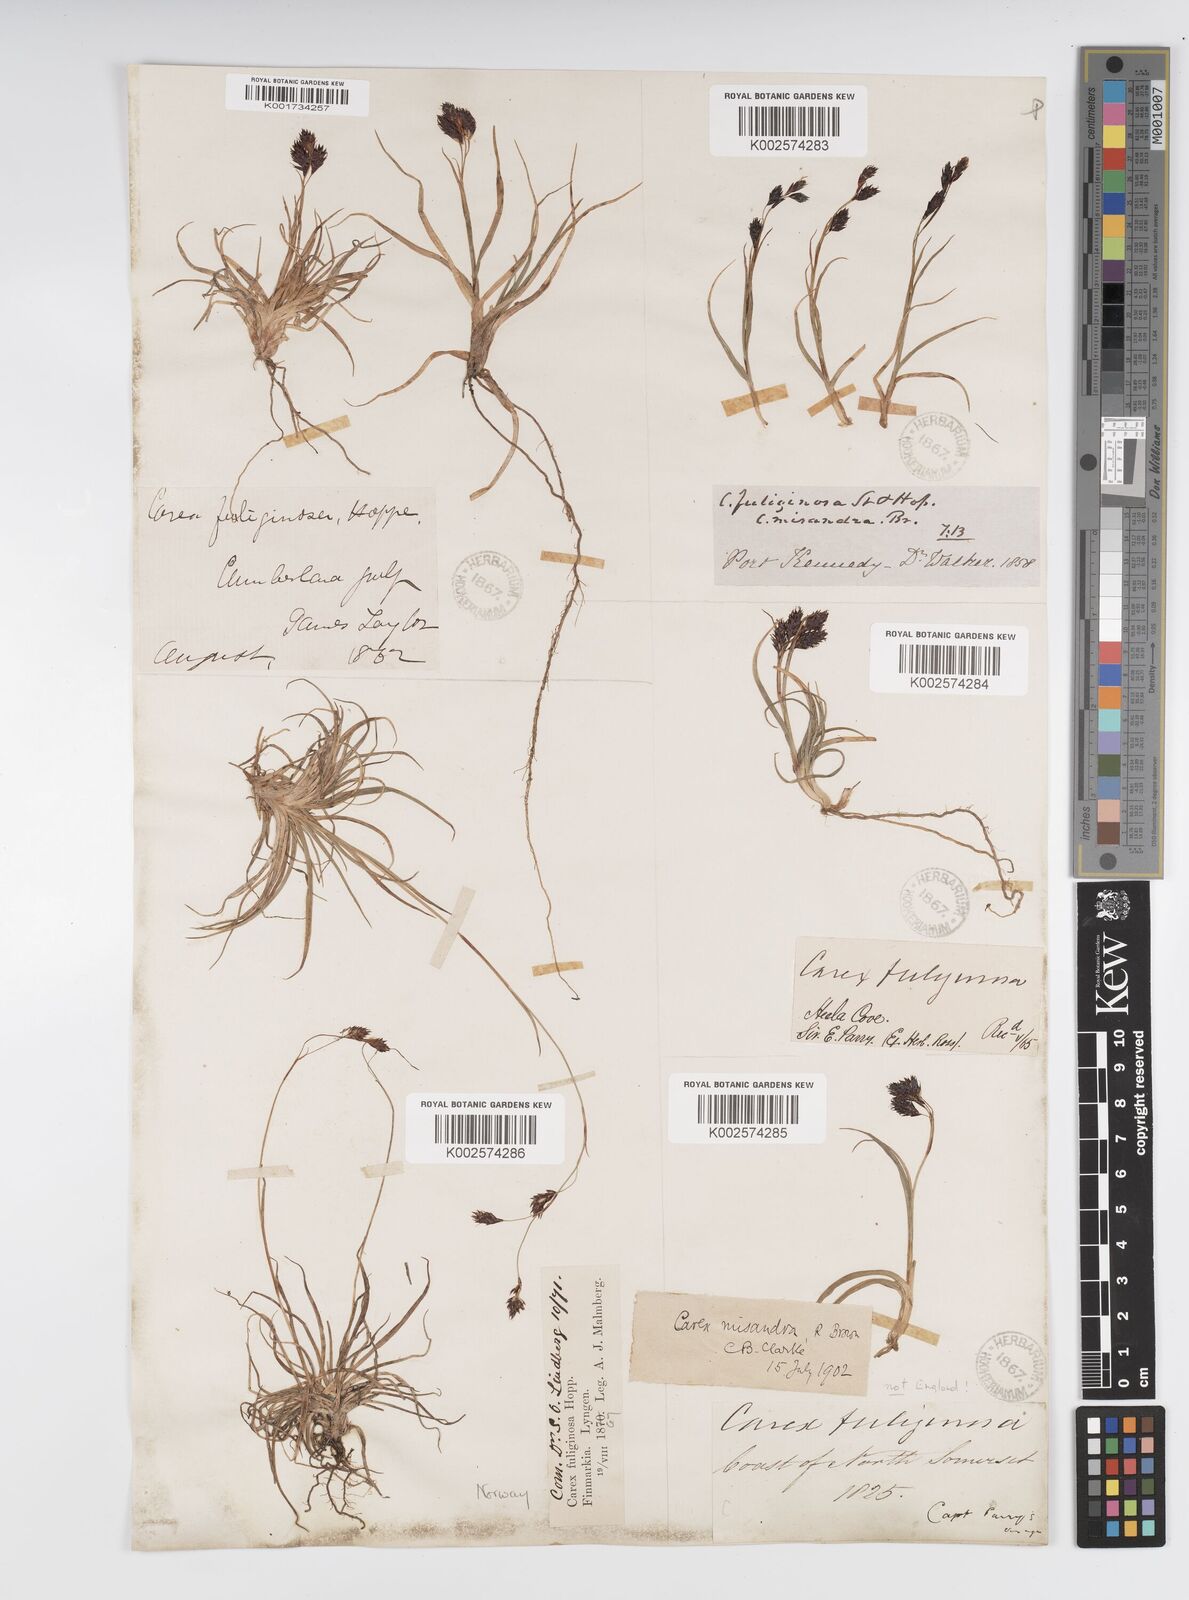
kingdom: Plantae
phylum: Tracheophyta
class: Liliopsida
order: Poales
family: Cyperaceae
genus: Carex
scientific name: Carex fuliginosa
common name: Few-flowered sedge
